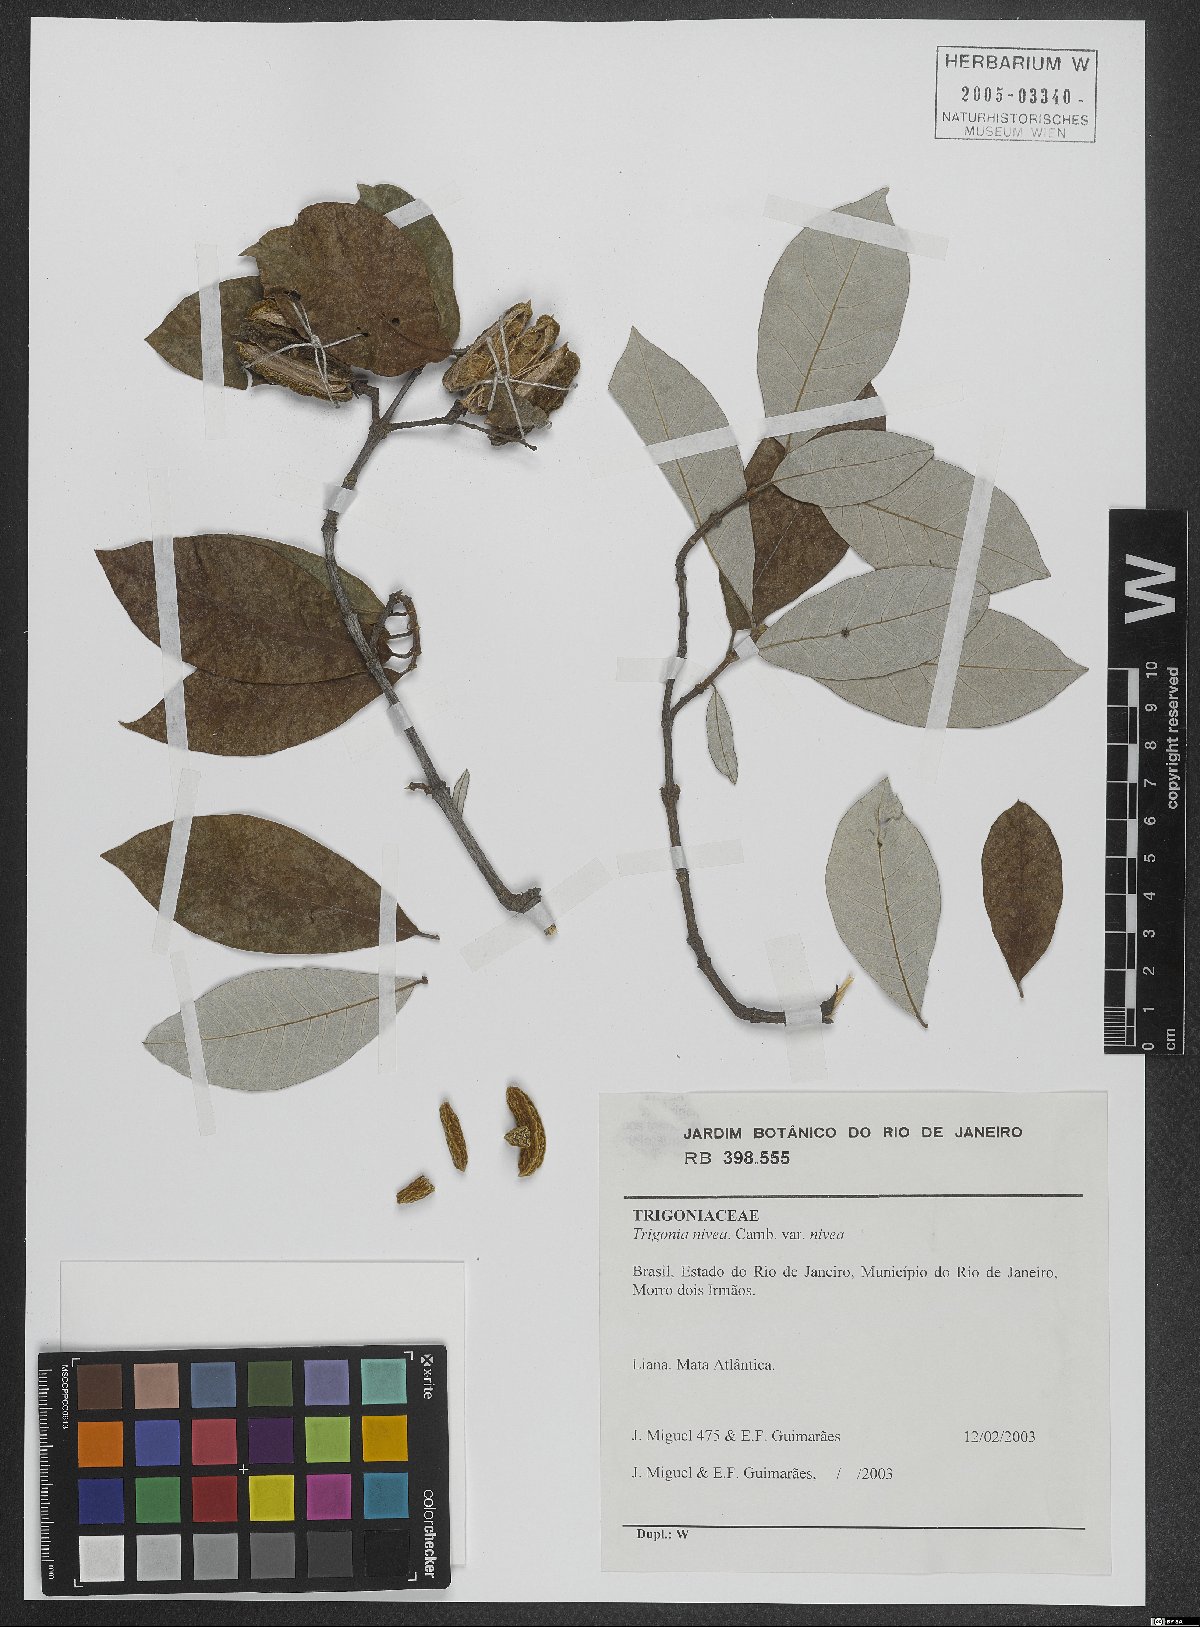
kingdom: Plantae
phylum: Tracheophyta
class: Magnoliopsida
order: Malpighiales
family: Trigoniaceae
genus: Trigonia
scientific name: Trigonia nivea
